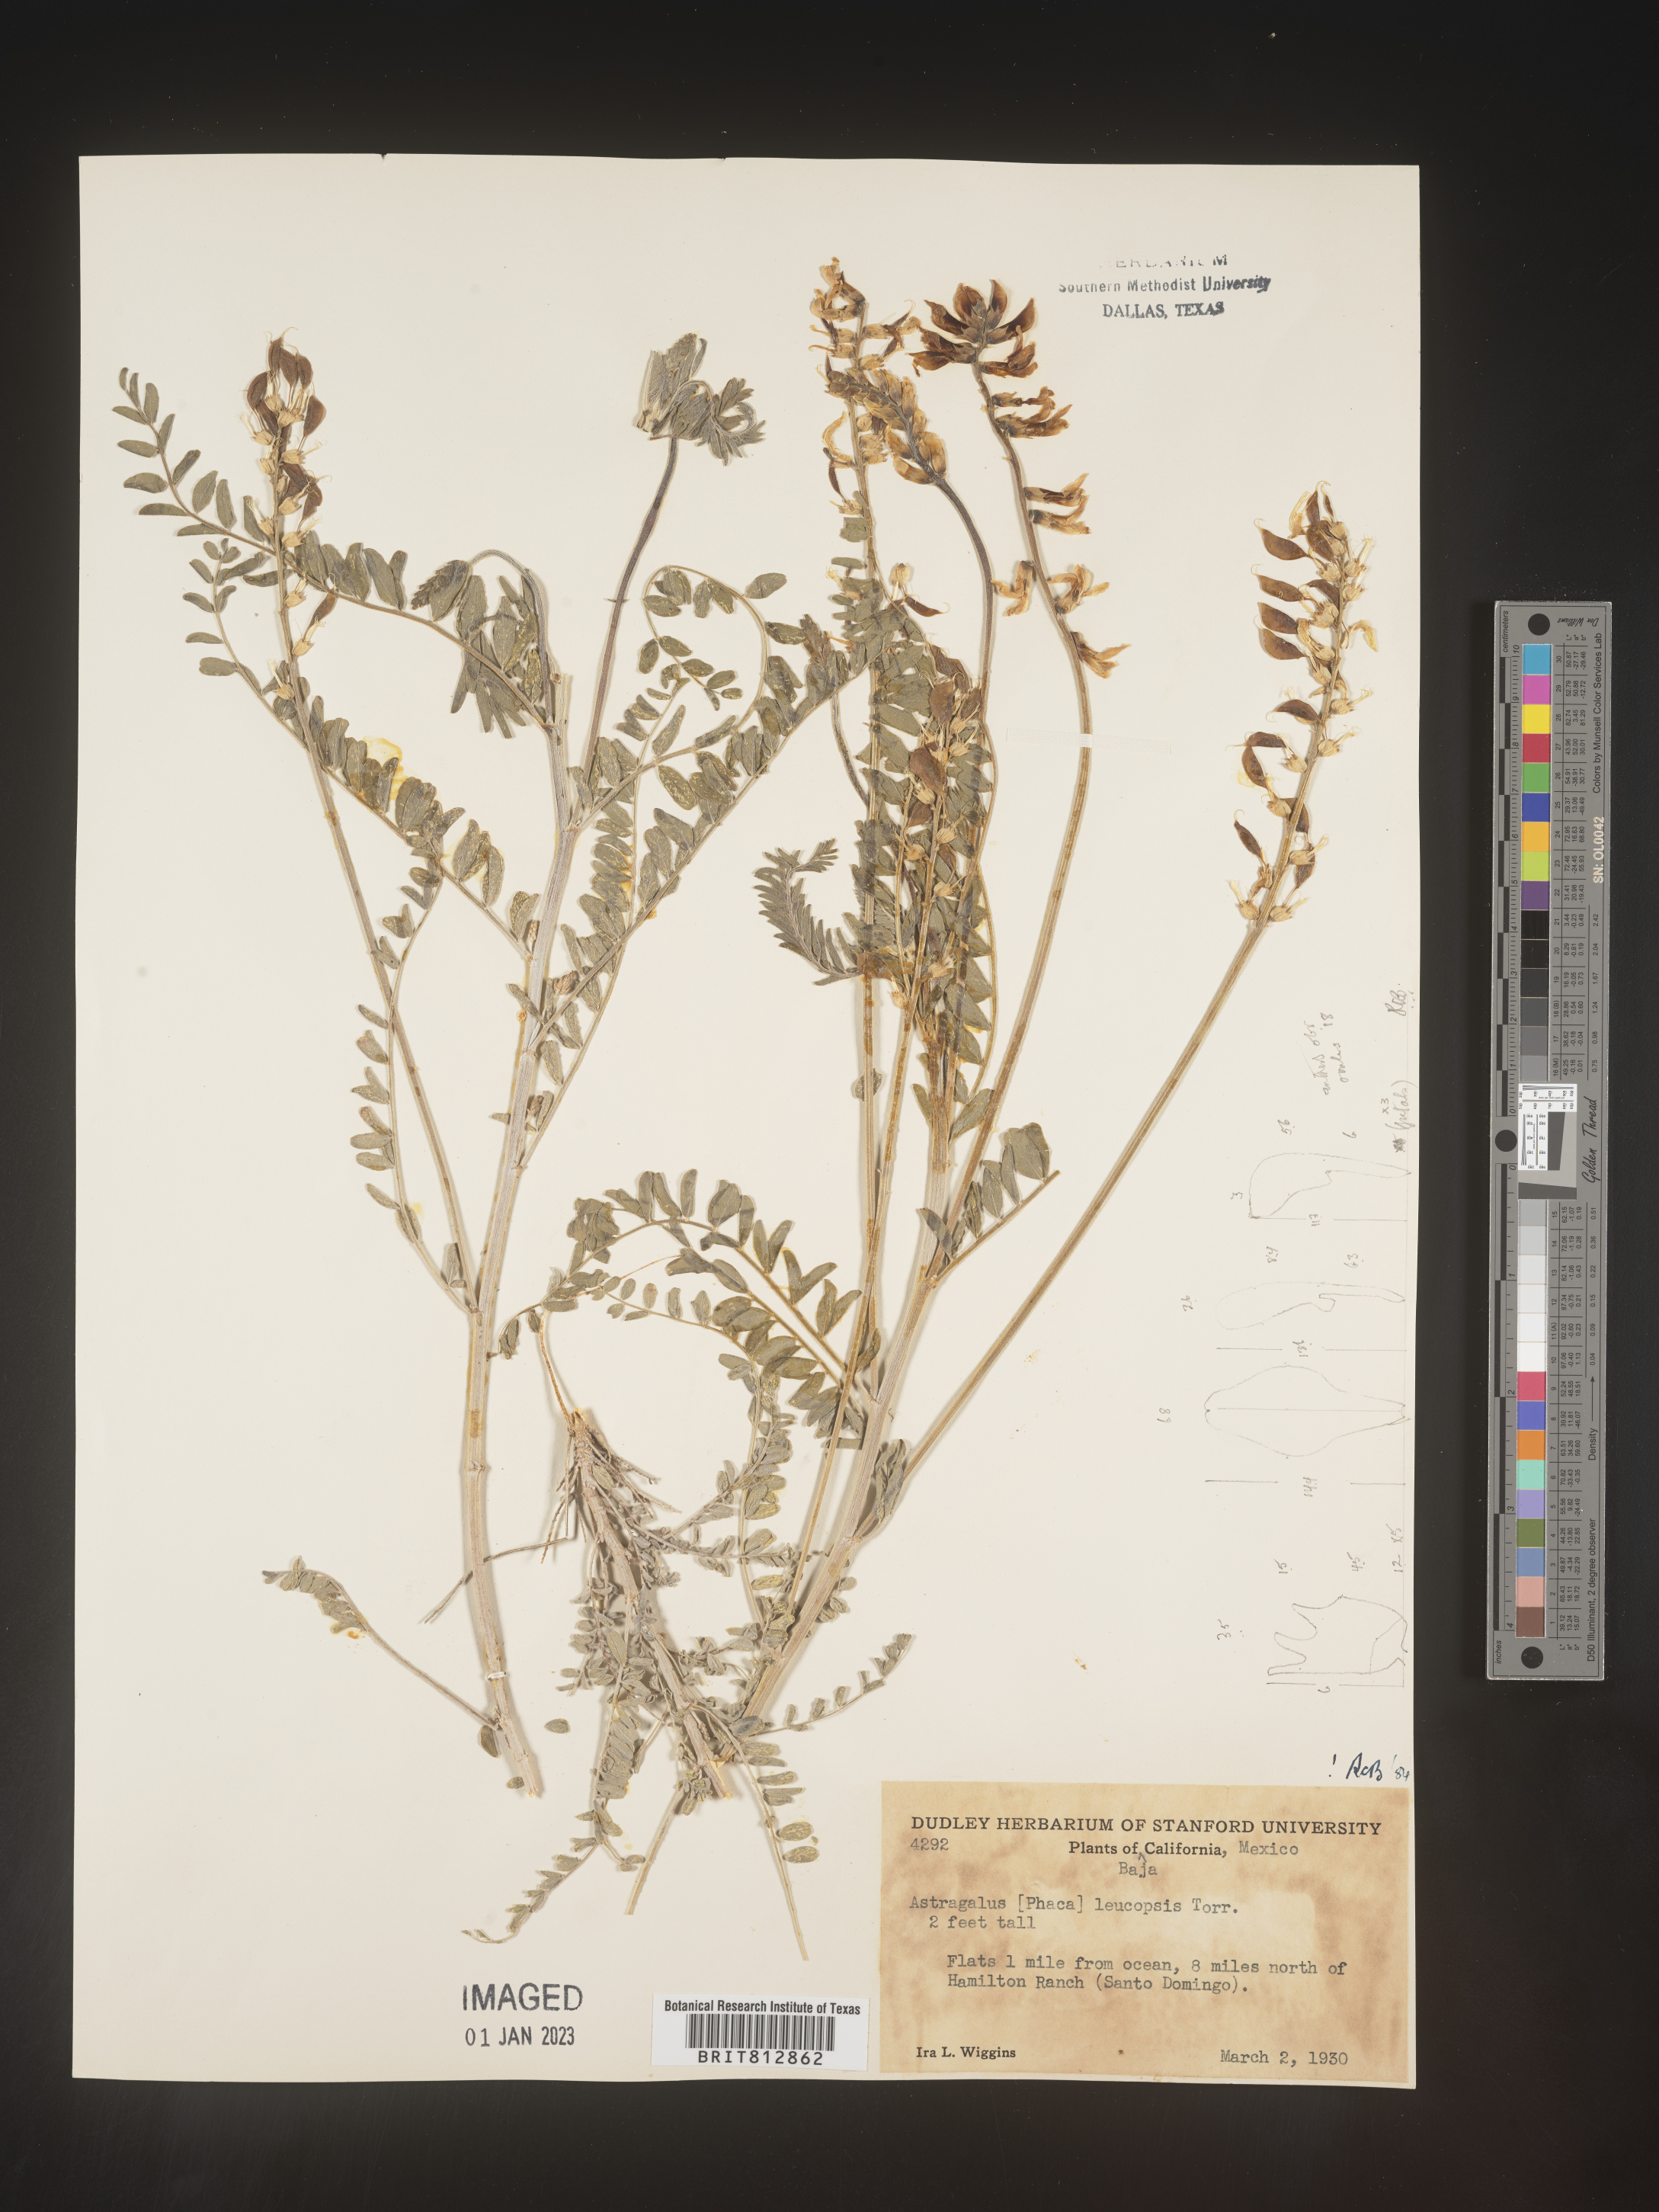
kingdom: Plantae
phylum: Tracheophyta
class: Magnoliopsida
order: Fabales
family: Fabaceae
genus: Astragalus
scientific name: Astragalus
